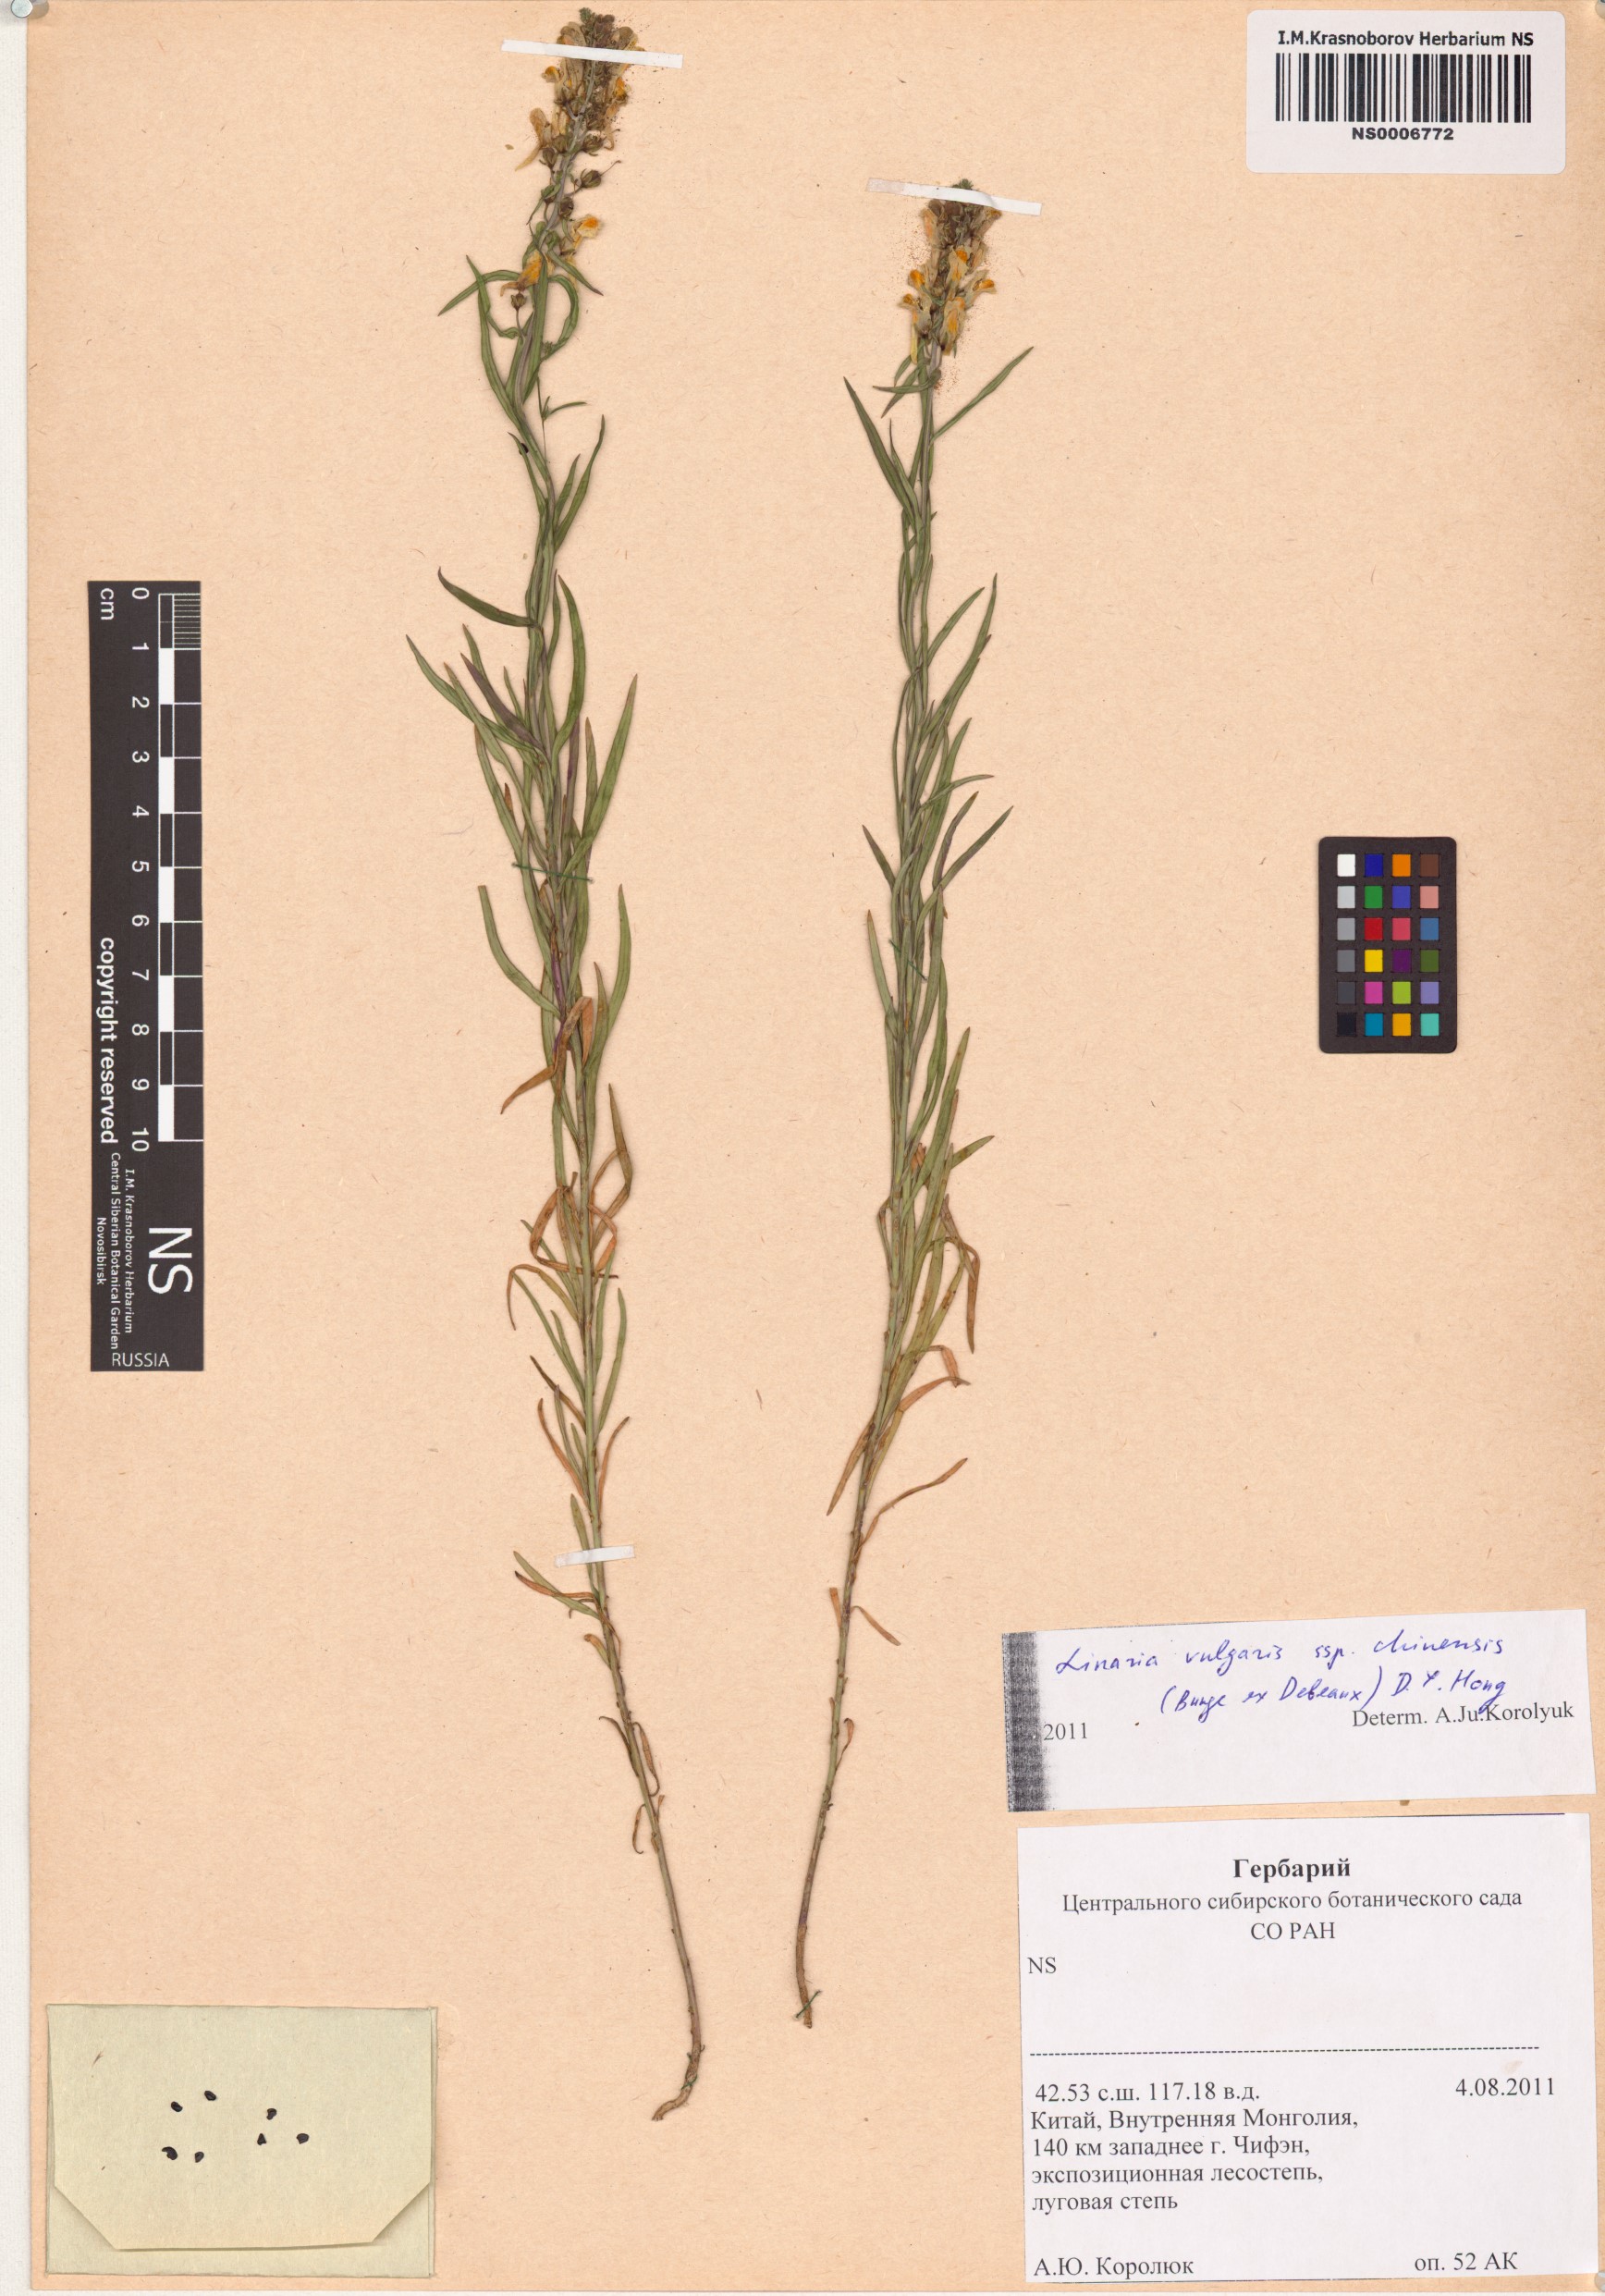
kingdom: Plantae
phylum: Tracheophyta
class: Magnoliopsida
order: Lamiales
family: Plantaginaceae
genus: Linaria
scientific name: Linaria vulgaris
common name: Butter and eggs
